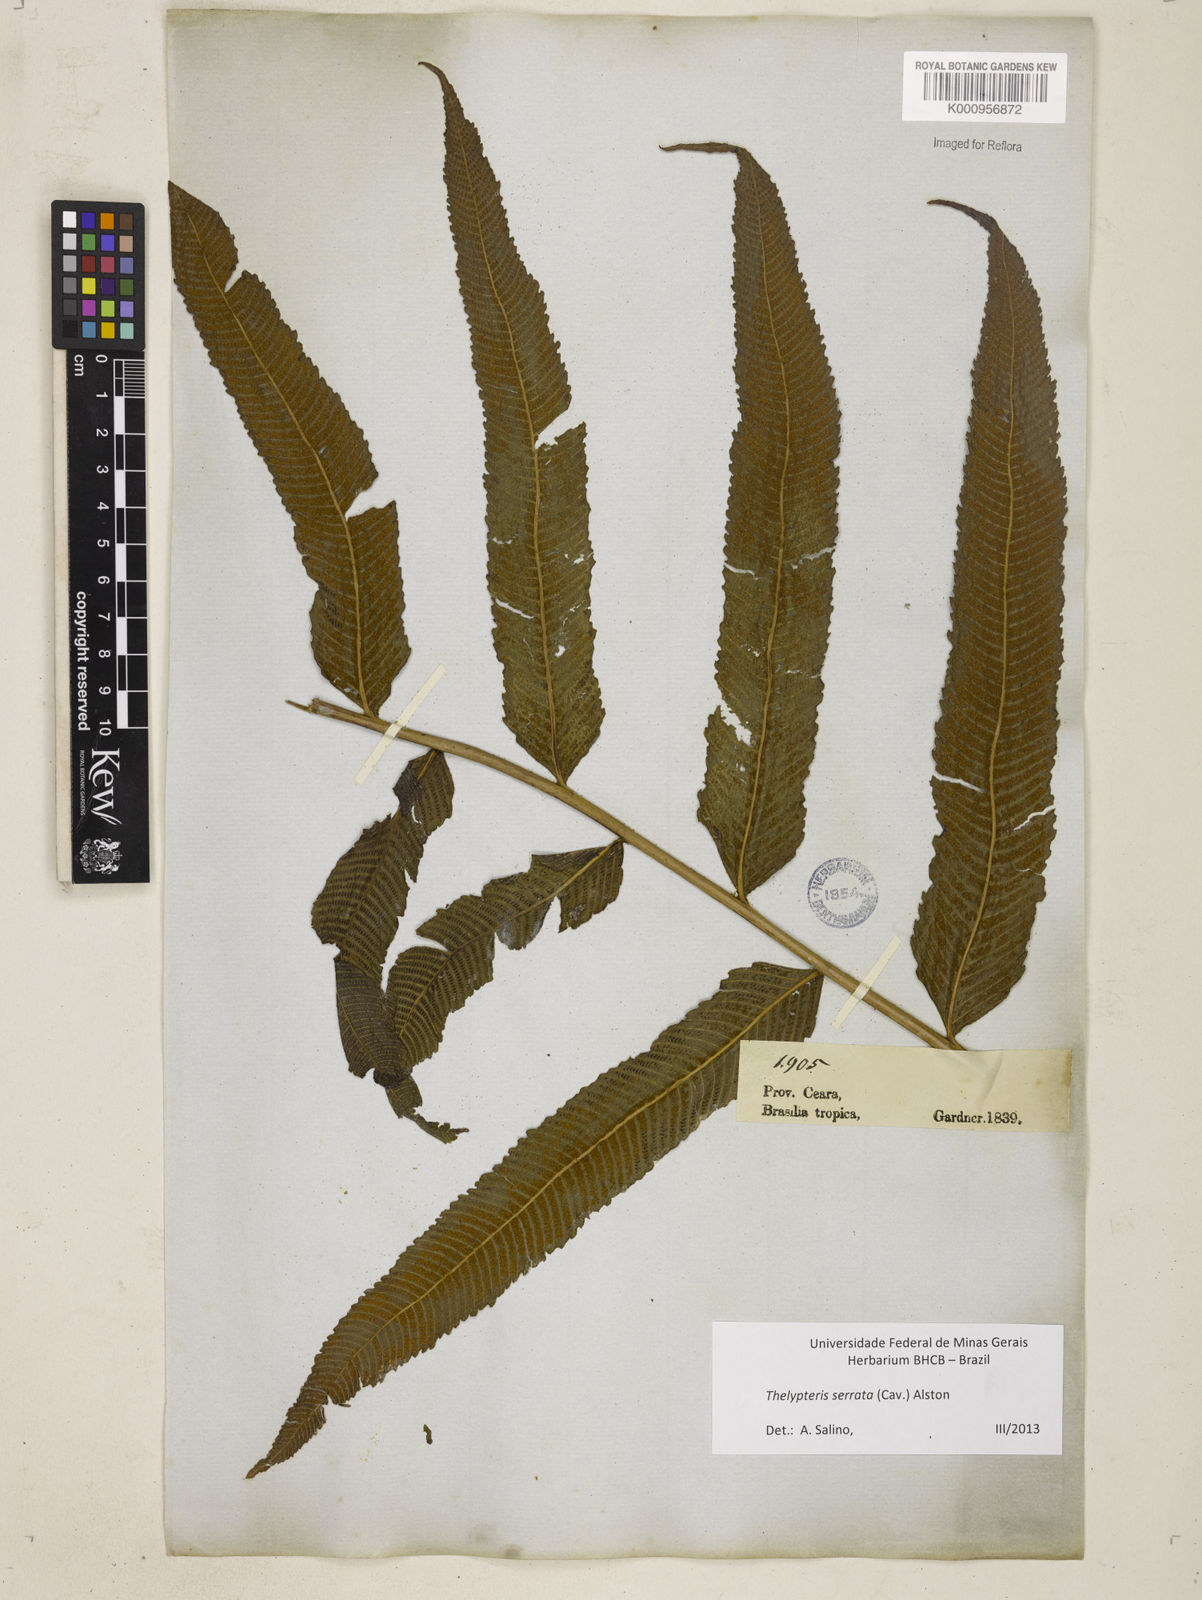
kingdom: Plantae
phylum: Tracheophyta
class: Polypodiopsida
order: Polypodiales
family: Thelypteridaceae
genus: Meniscium
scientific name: Meniscium serratum
